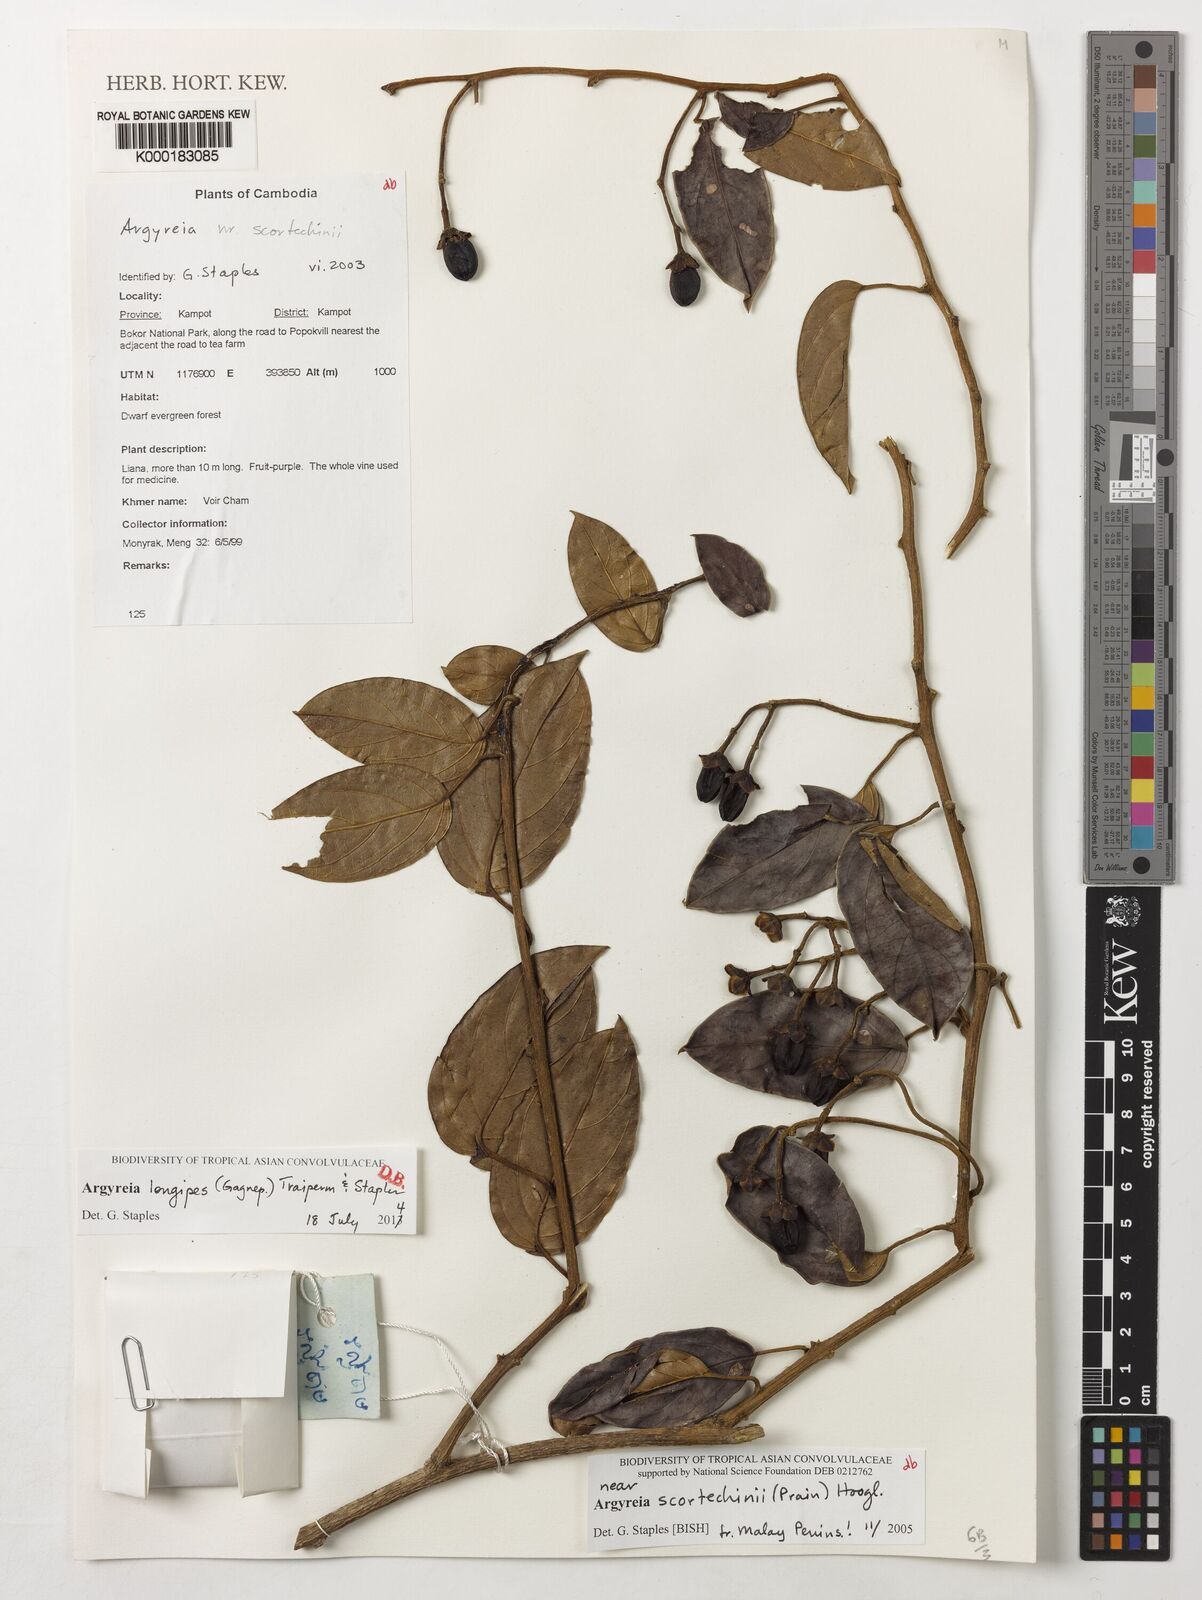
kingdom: Plantae
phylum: Tracheophyta
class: Magnoliopsida
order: Solanales
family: Convolvulaceae
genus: Argyreia
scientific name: Argyreia
